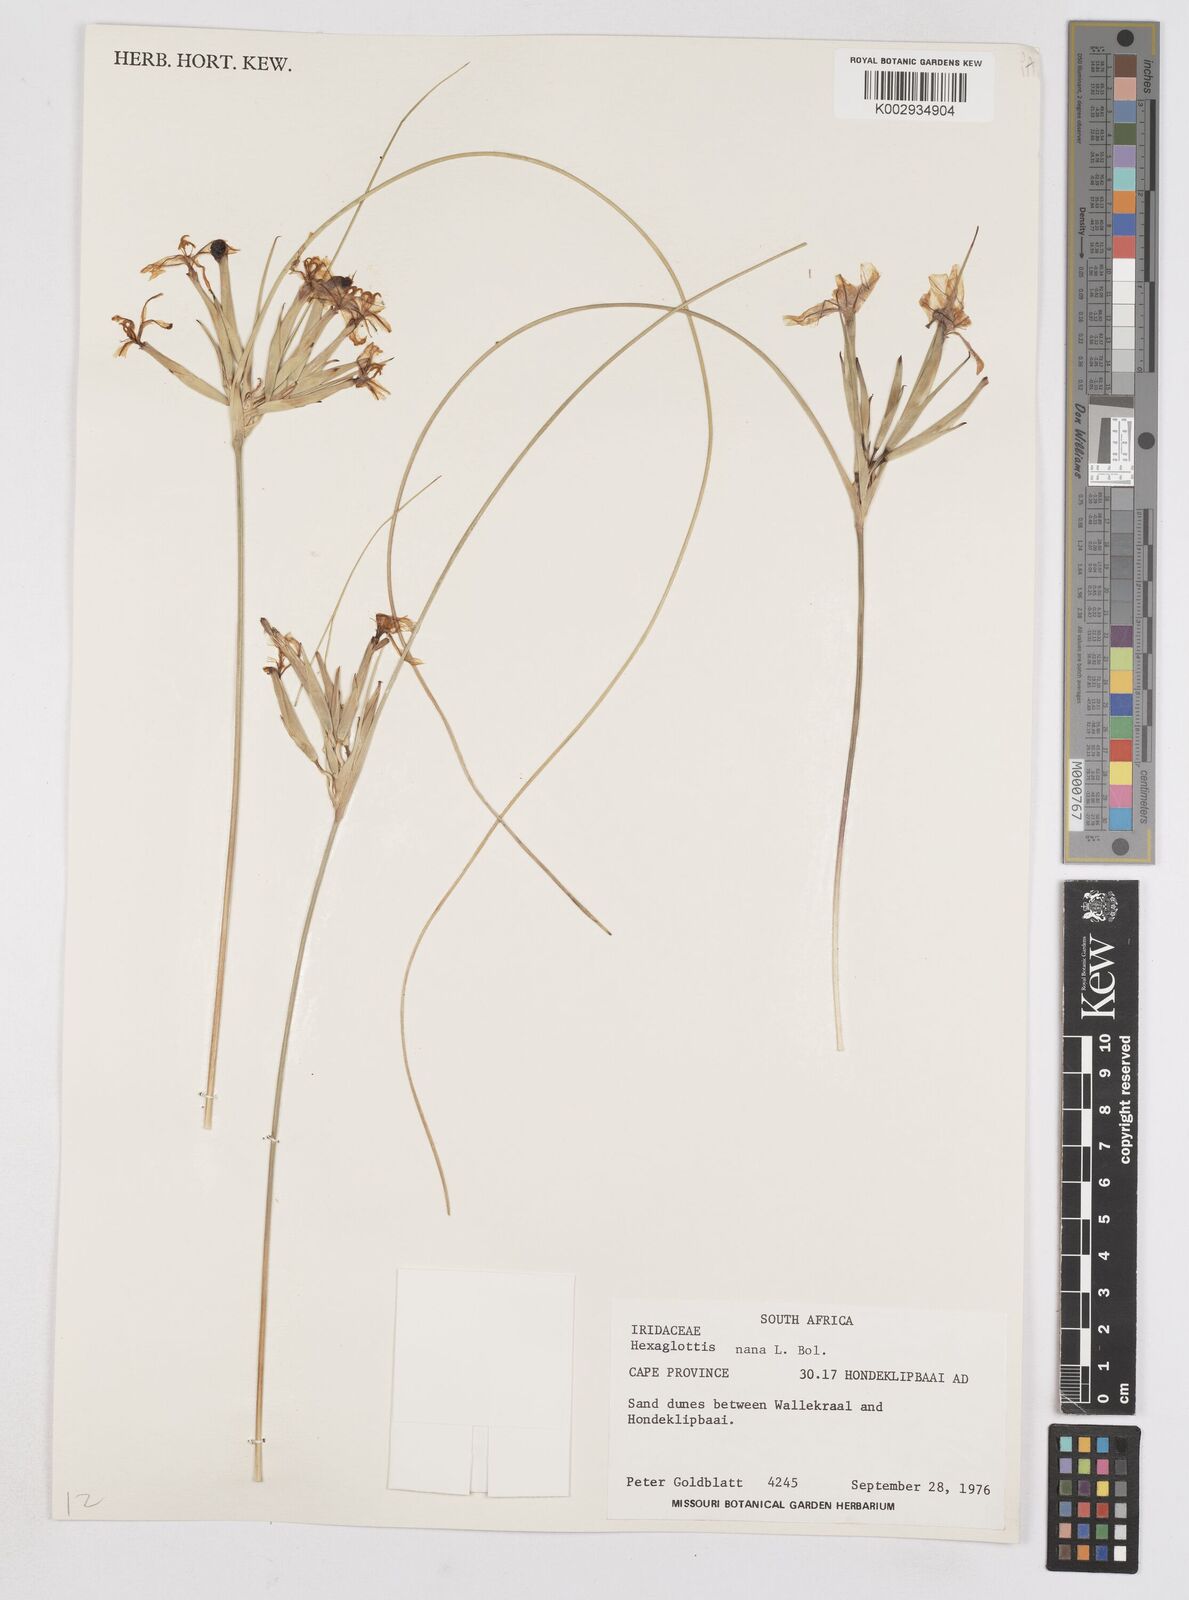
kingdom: Plantae
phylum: Tracheophyta
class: Liliopsida
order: Asparagales
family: Iridaceae
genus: Moraea
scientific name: Moraea nana
